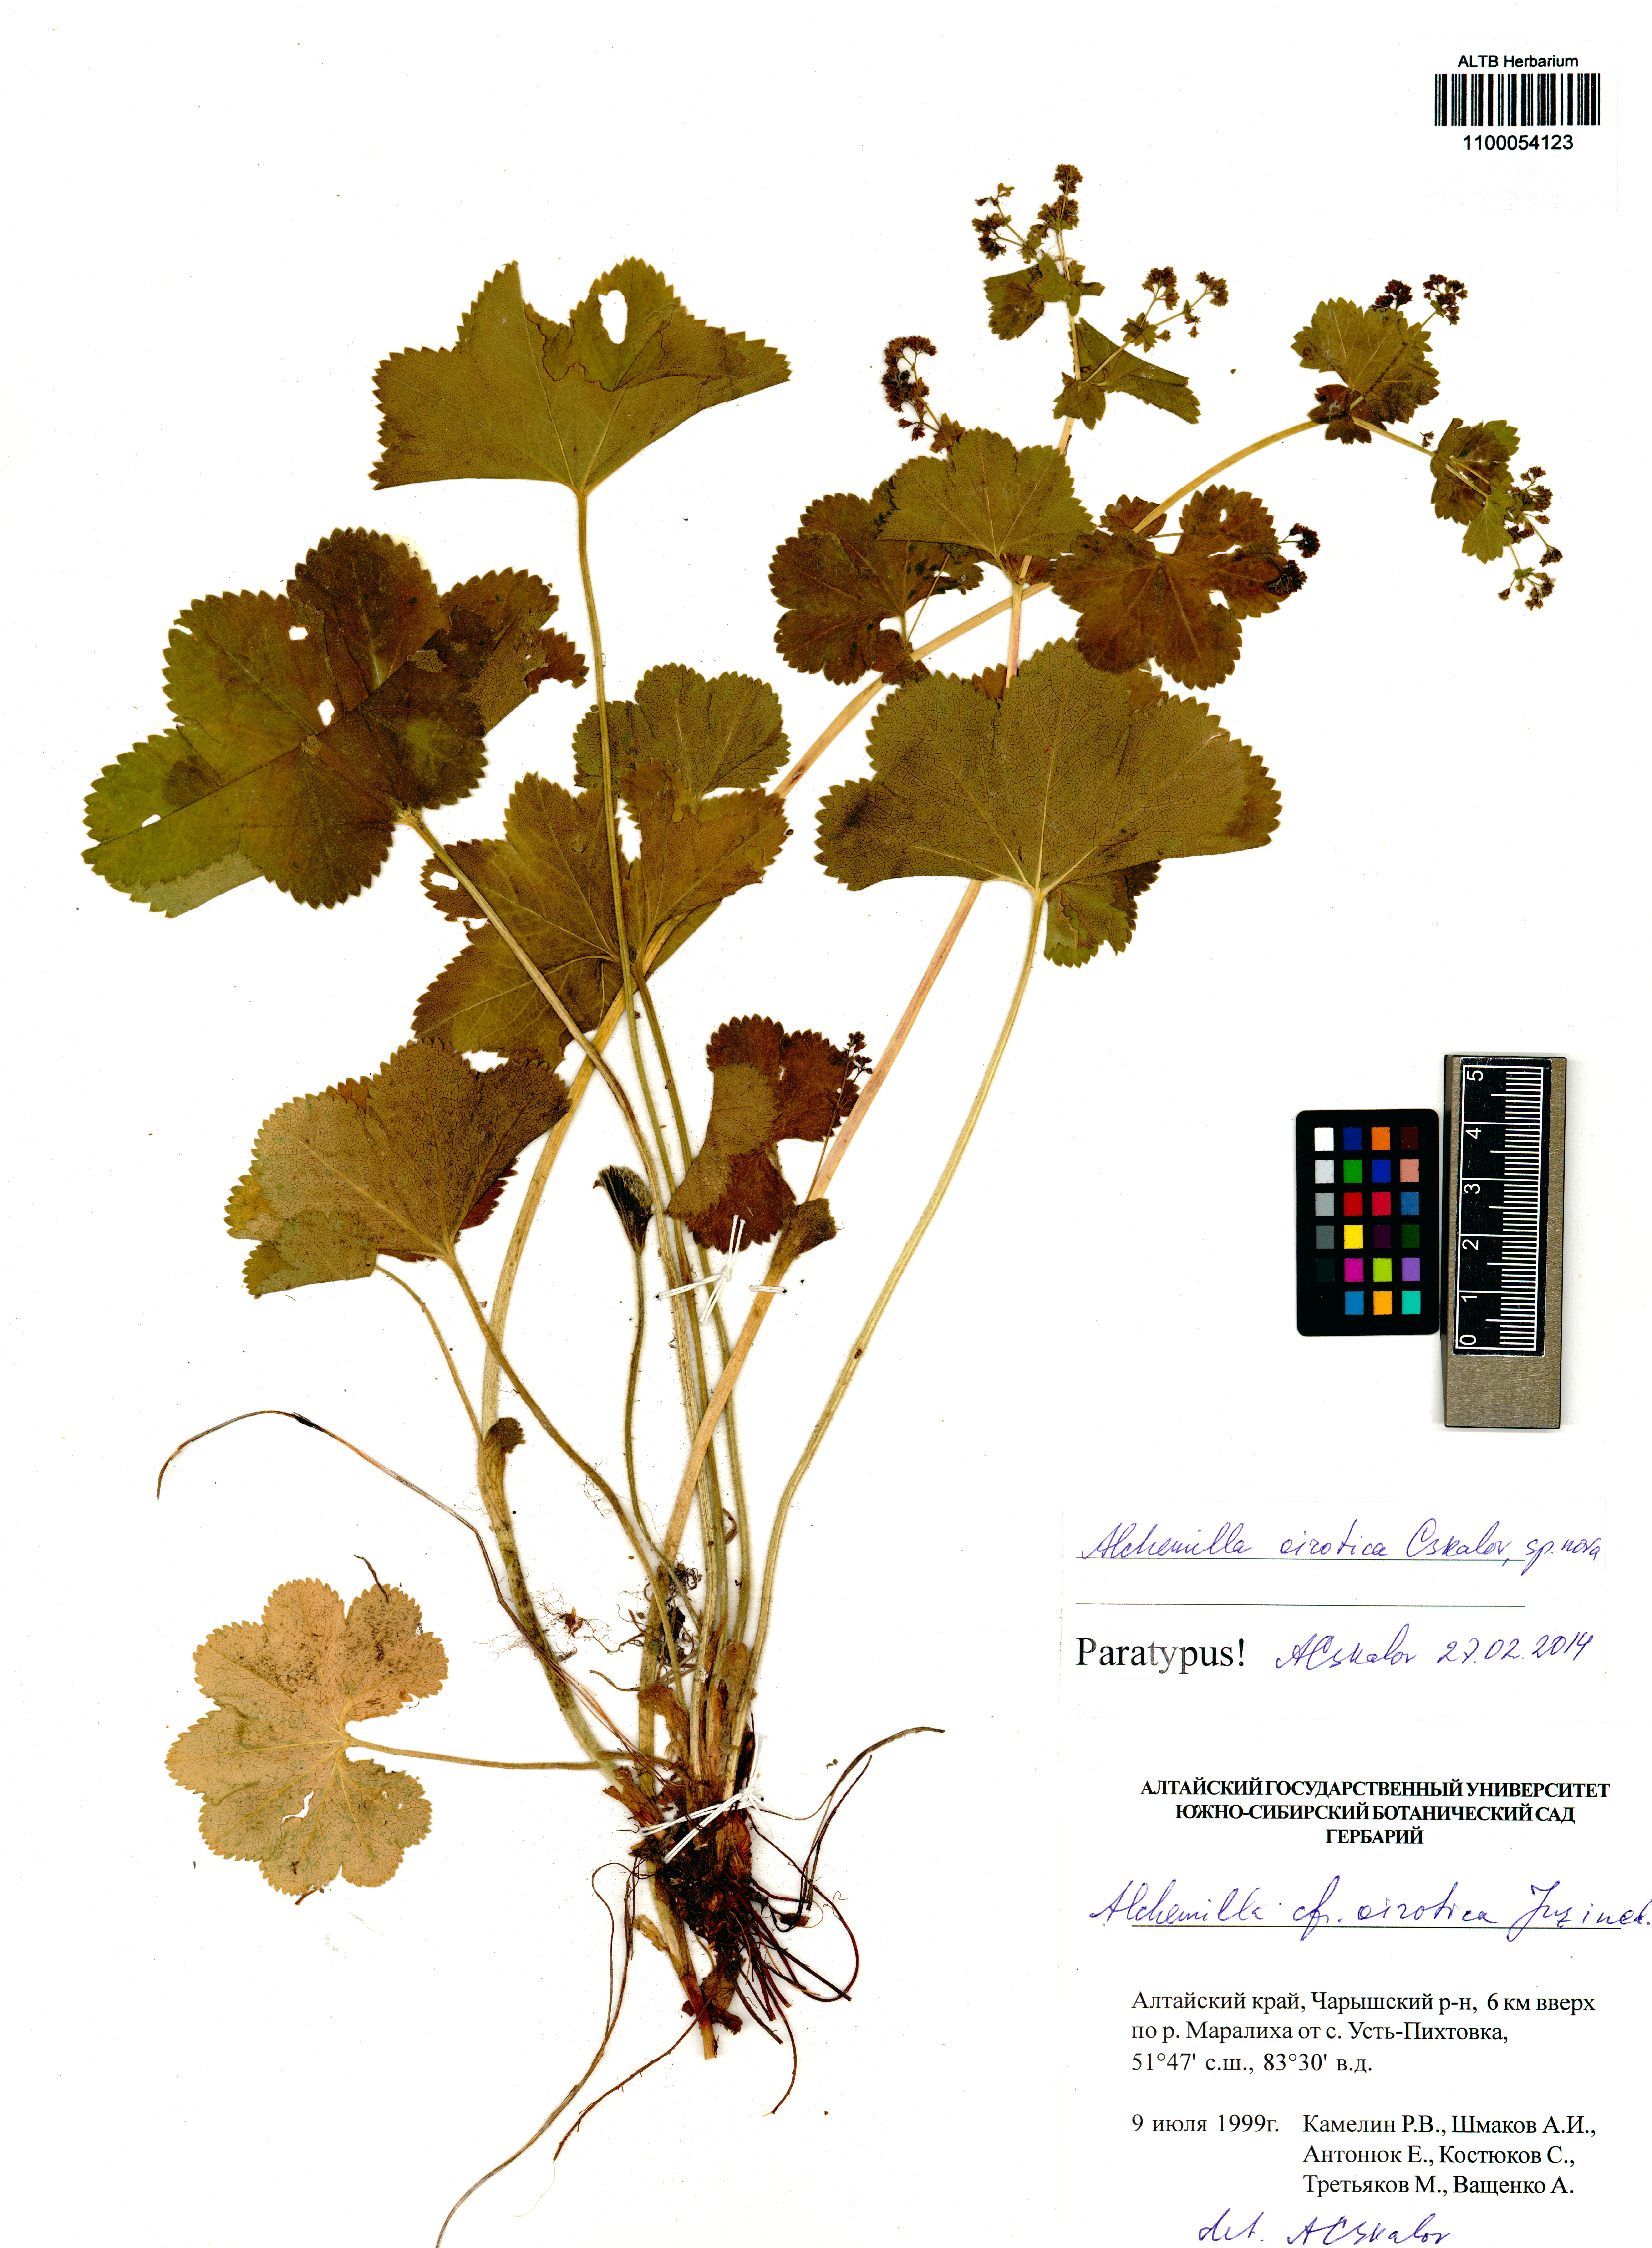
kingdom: Plantae
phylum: Tracheophyta
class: Magnoliopsida
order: Rosales
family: Rosaceae
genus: Alchemilla
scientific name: Alchemilla oirotica
